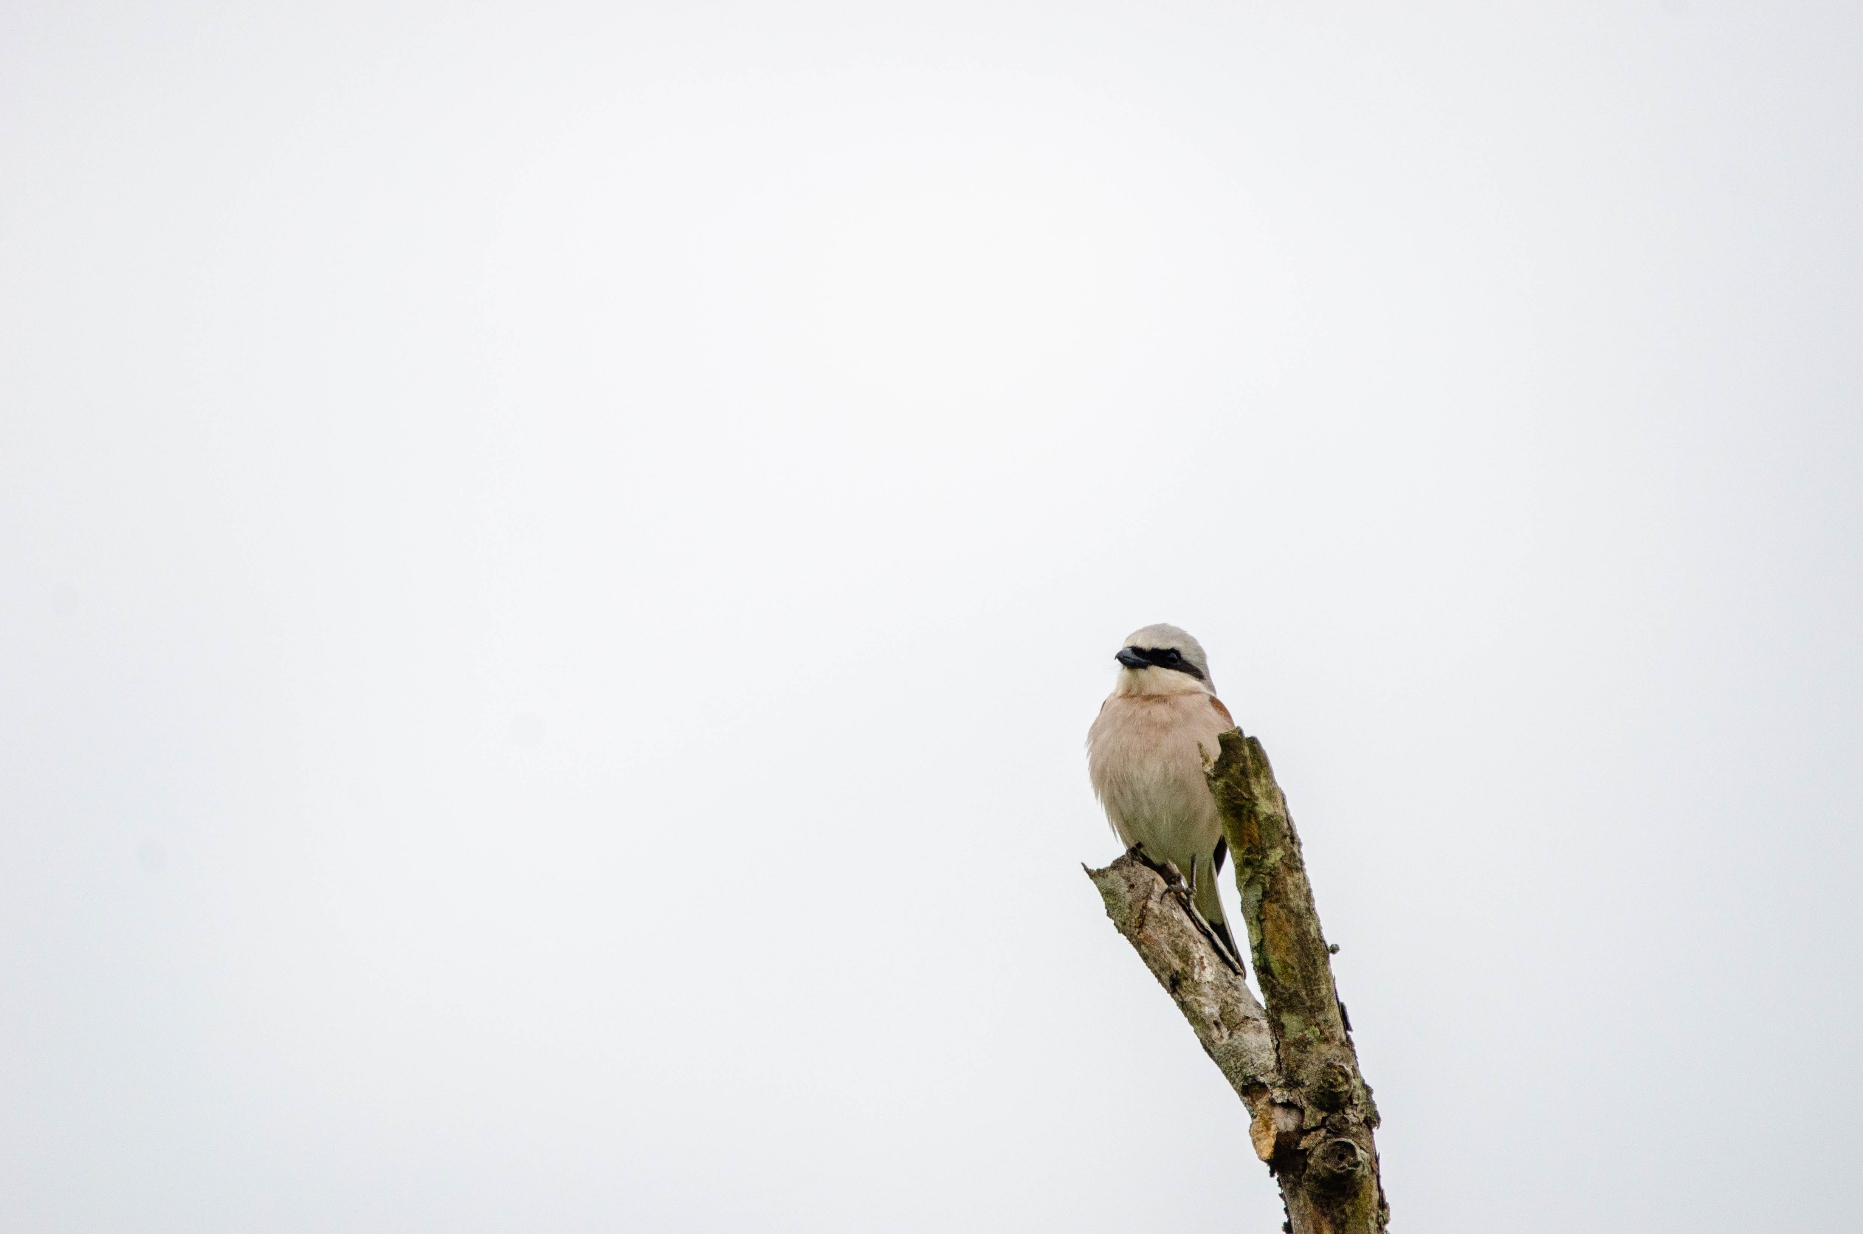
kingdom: Animalia
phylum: Chordata
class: Aves
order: Passeriformes
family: Laniidae
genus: Lanius
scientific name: Lanius collurio
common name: Rødrygget tornskade
